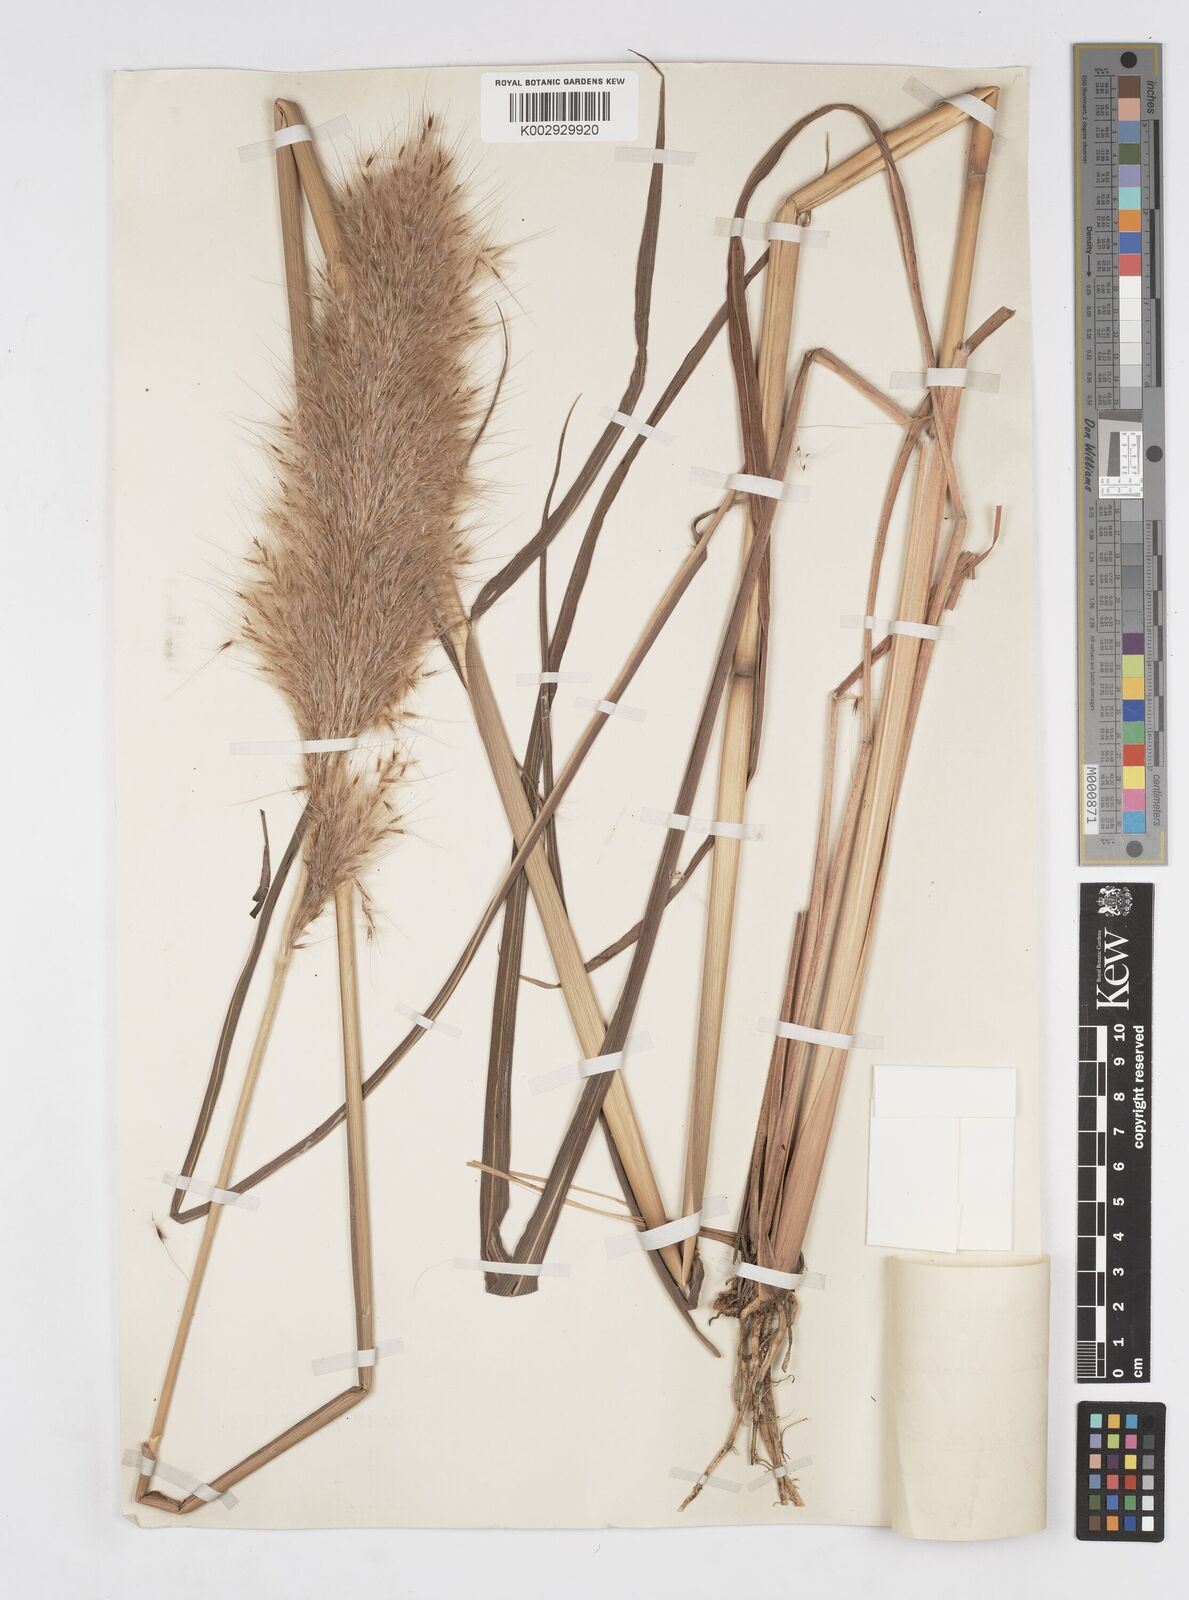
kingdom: Plantae
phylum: Tracheophyta
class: Liliopsida
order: Poales
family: Poaceae
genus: Erianthus
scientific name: Erianthus giganteus
